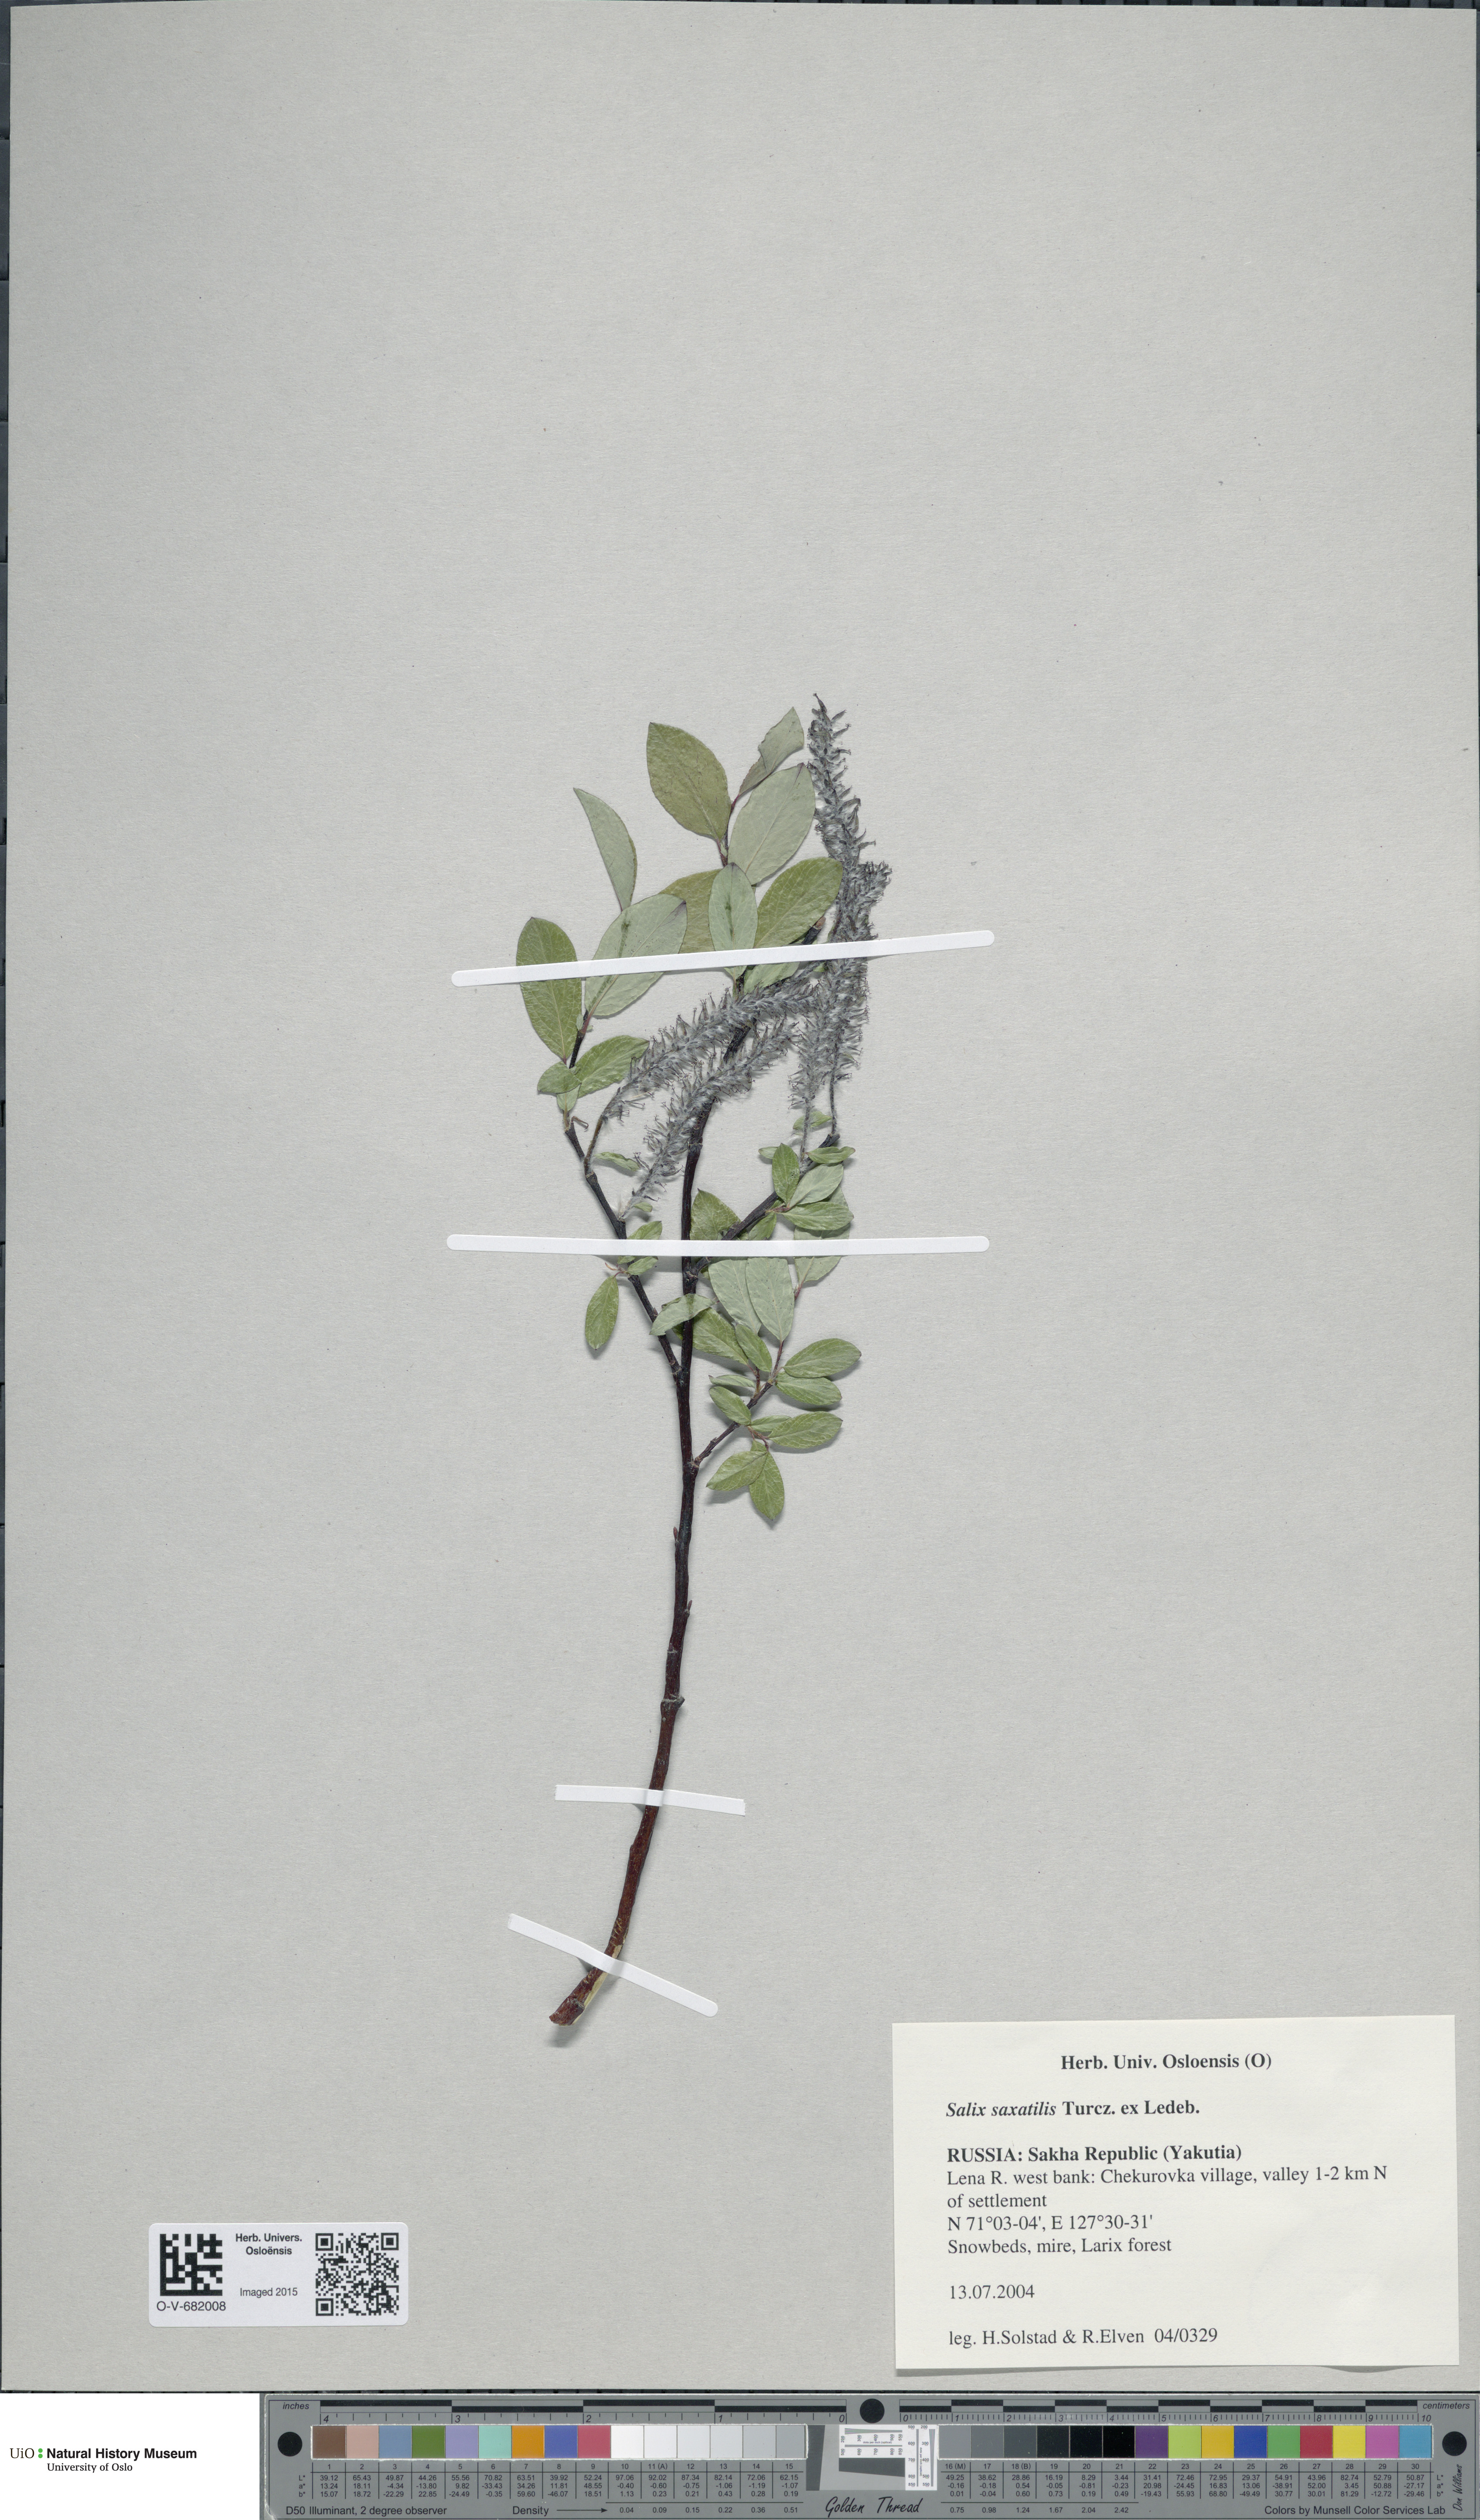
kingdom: Plantae
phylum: Tracheophyta
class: Magnoliopsida
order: Malpighiales
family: Salicaceae
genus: Salix
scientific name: Salix saxatilis
